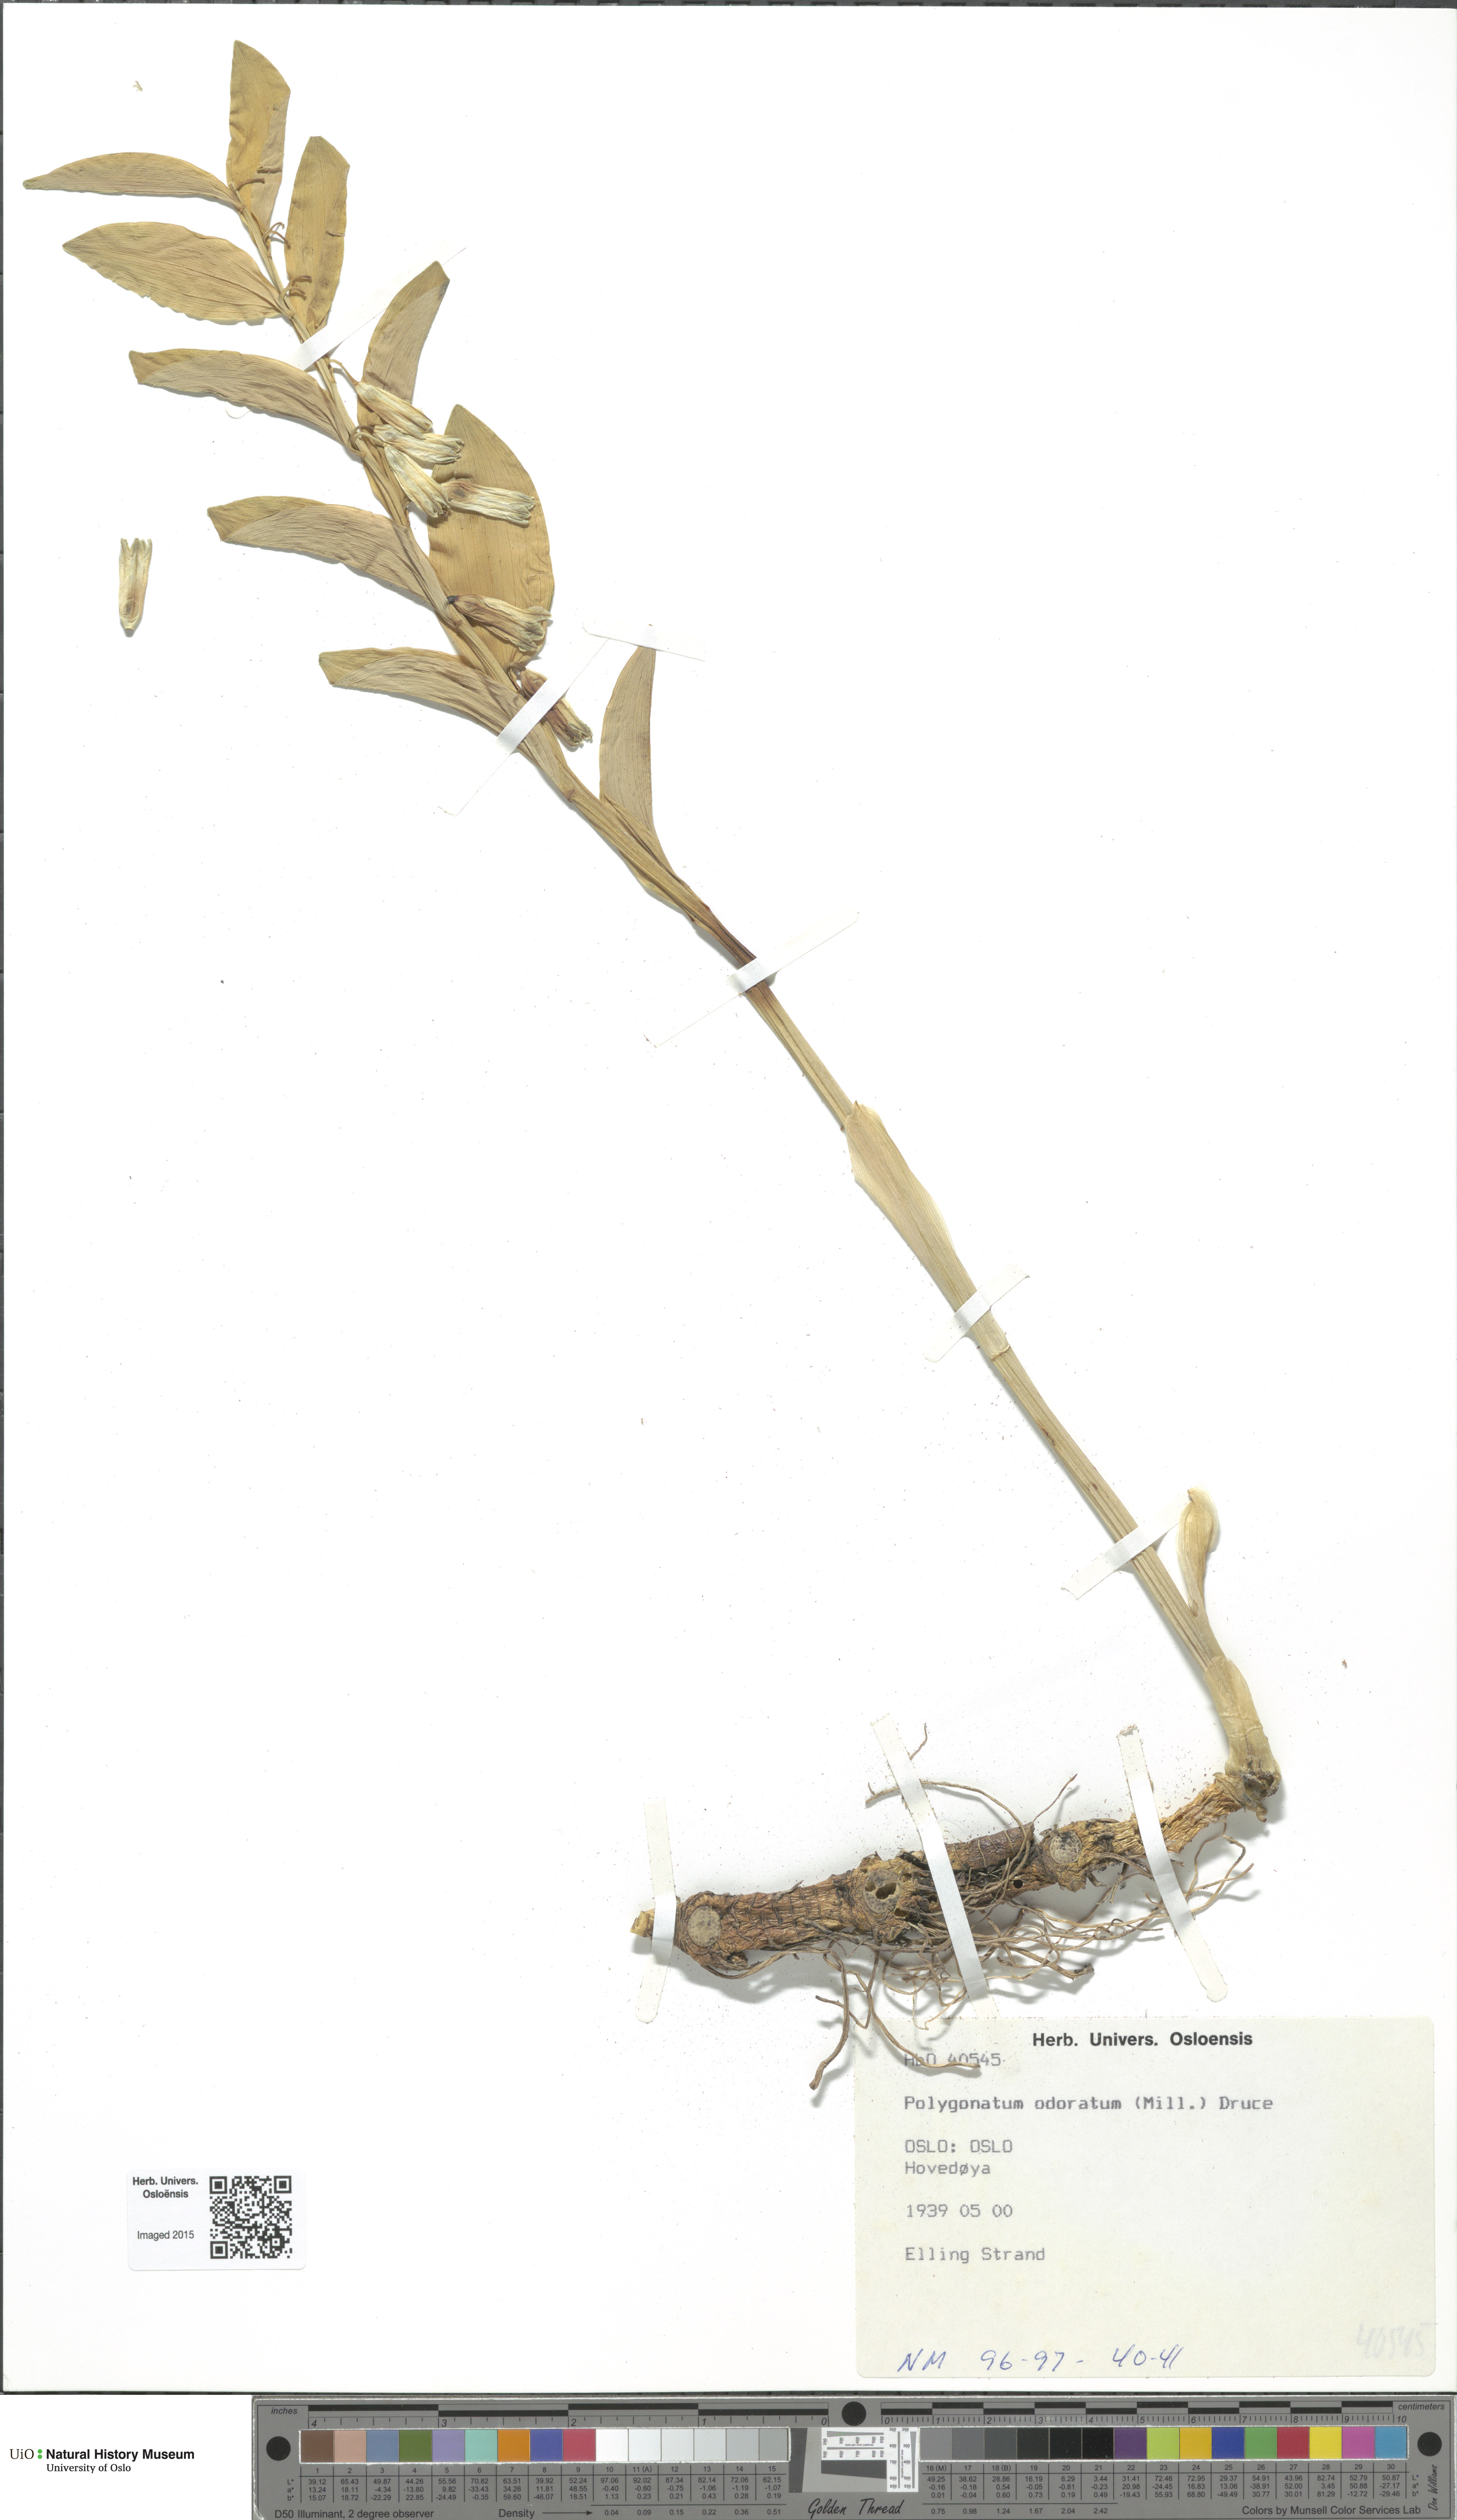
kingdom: Plantae
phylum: Tracheophyta
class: Liliopsida
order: Asparagales
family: Asparagaceae
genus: Polygonatum
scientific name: Polygonatum odoratum
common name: Angular solomon's-seal
